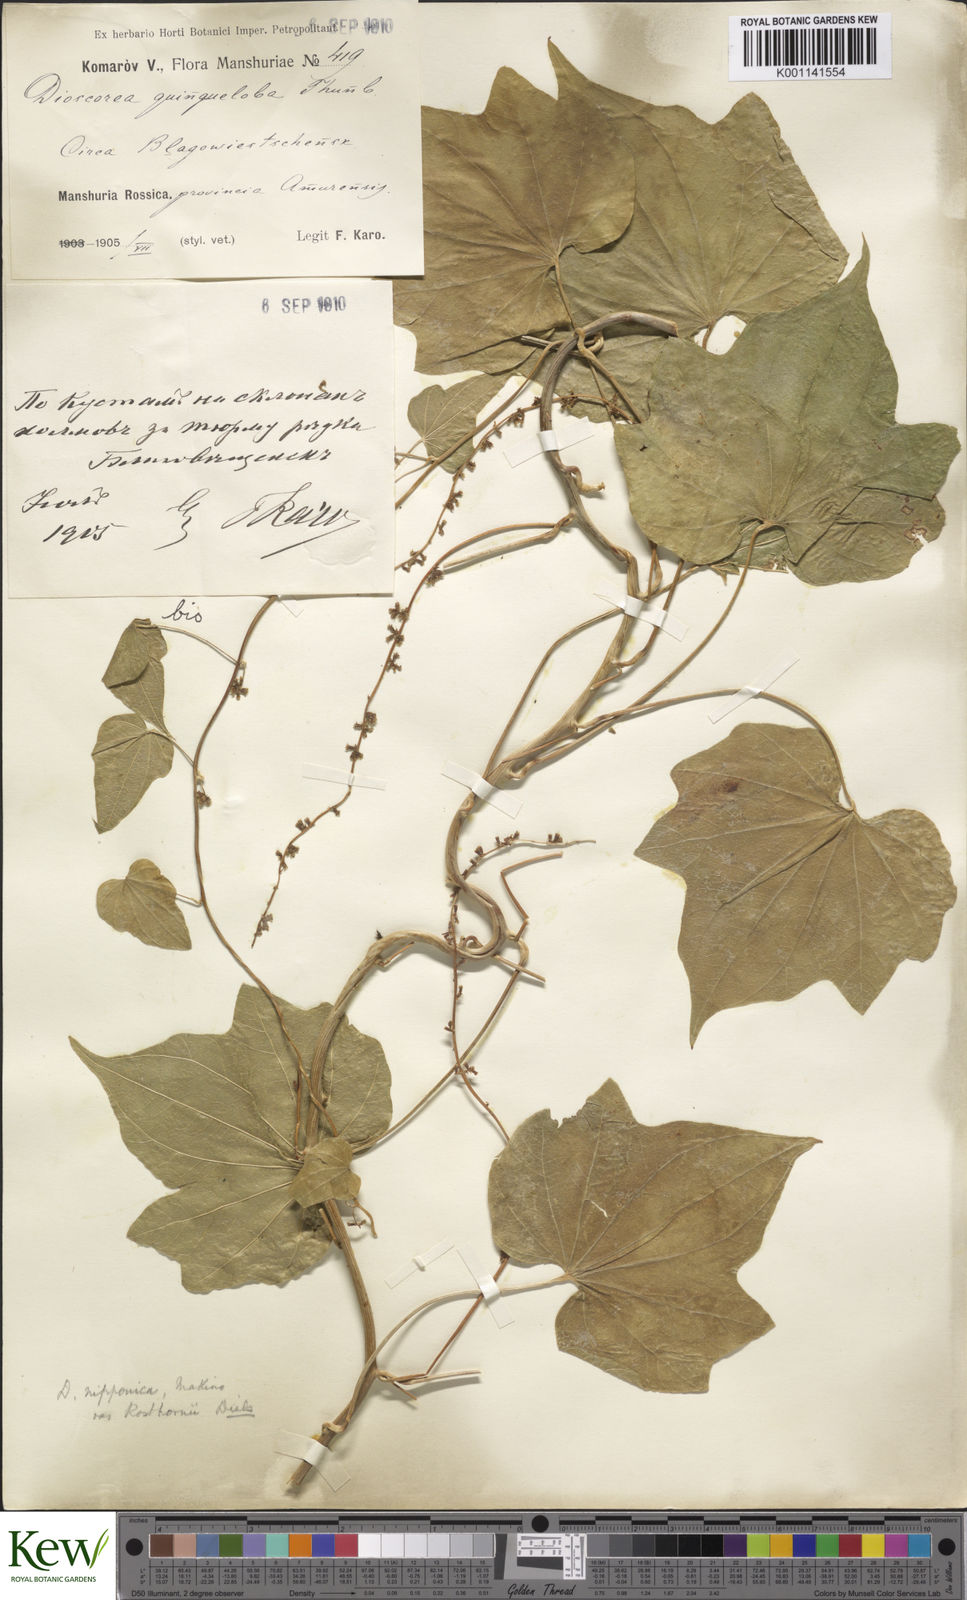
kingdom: Plantae
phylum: Tracheophyta
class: Liliopsida
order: Dioscoreales
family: Dioscoreaceae
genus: Dioscorea
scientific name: Dioscorea nipponica
